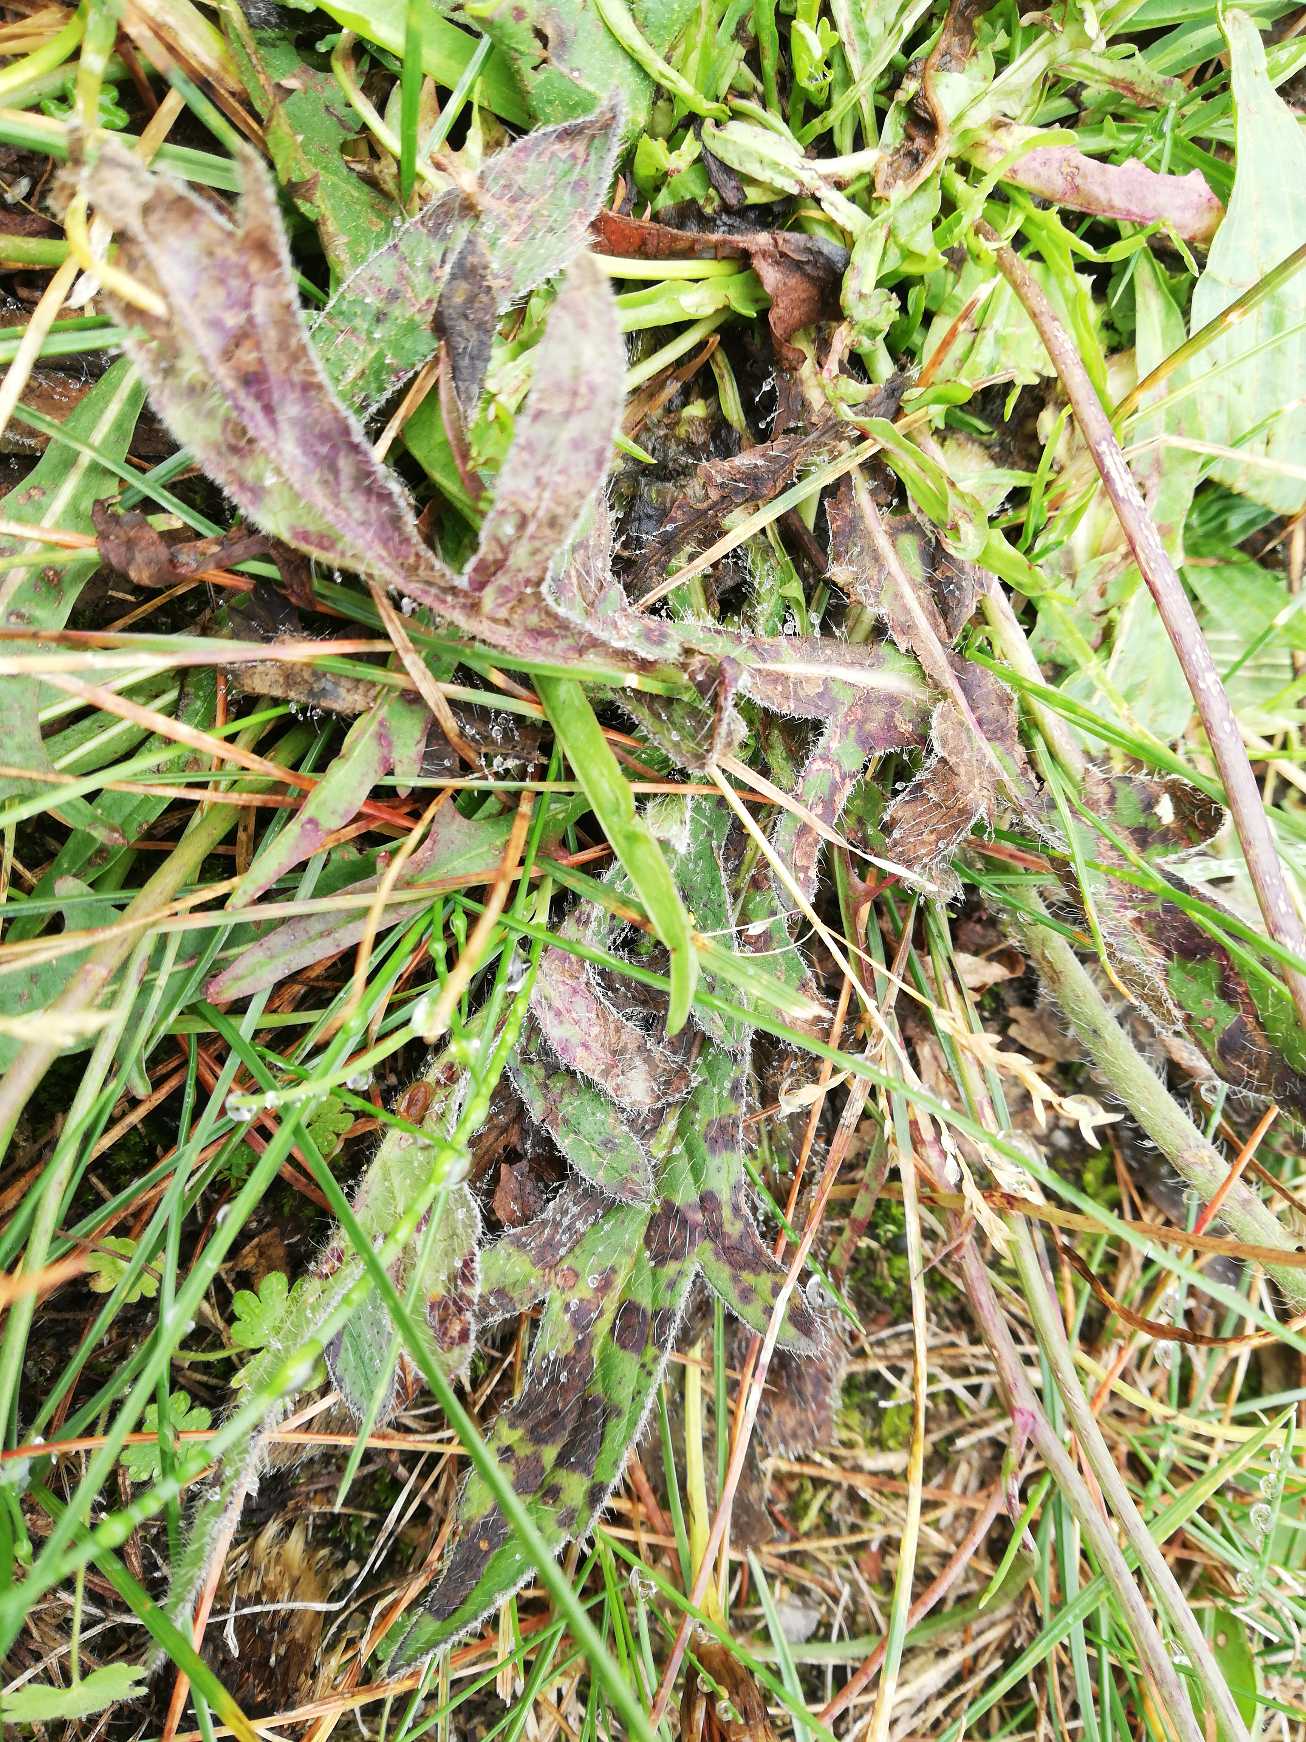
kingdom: Plantae
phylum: Tracheophyta
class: Magnoliopsida
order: Dipsacales
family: Caprifoliaceae
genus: Knautia
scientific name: Knautia arvensis
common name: Blåhat
